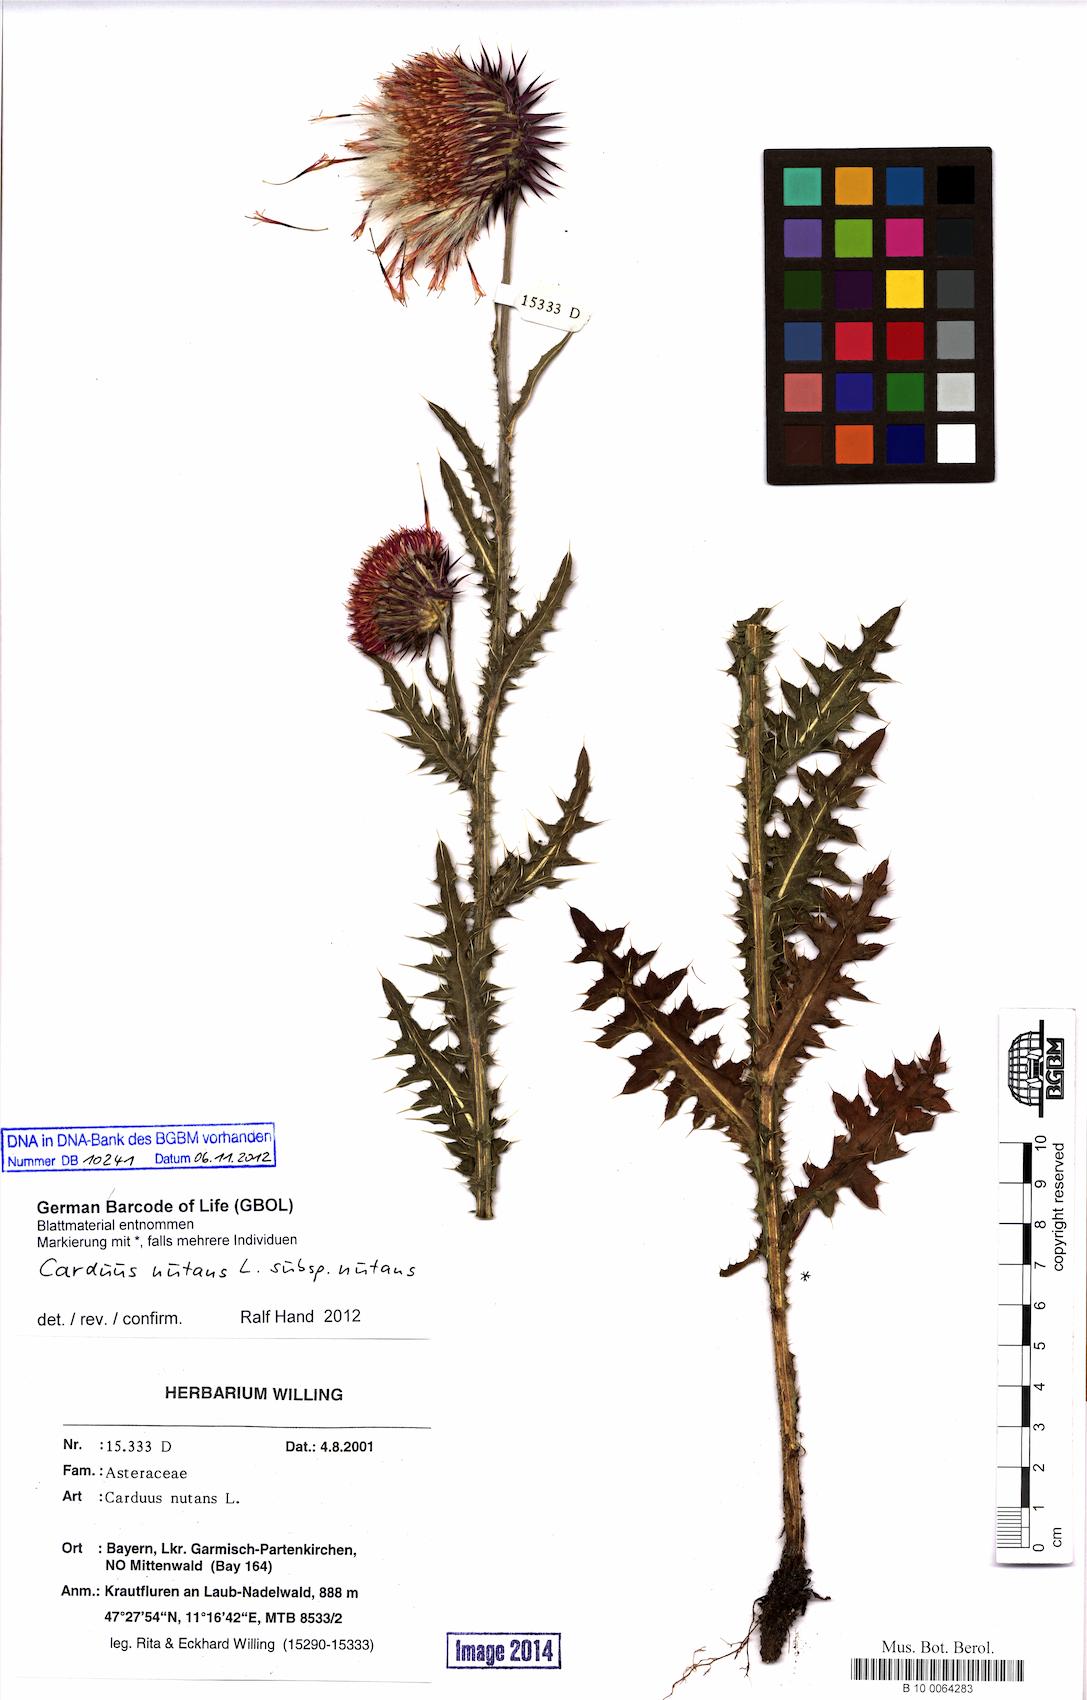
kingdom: Plantae
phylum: Tracheophyta
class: Magnoliopsida
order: Asterales
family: Asteraceae
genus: Carduus
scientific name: Carduus nutans
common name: Musk thistle
